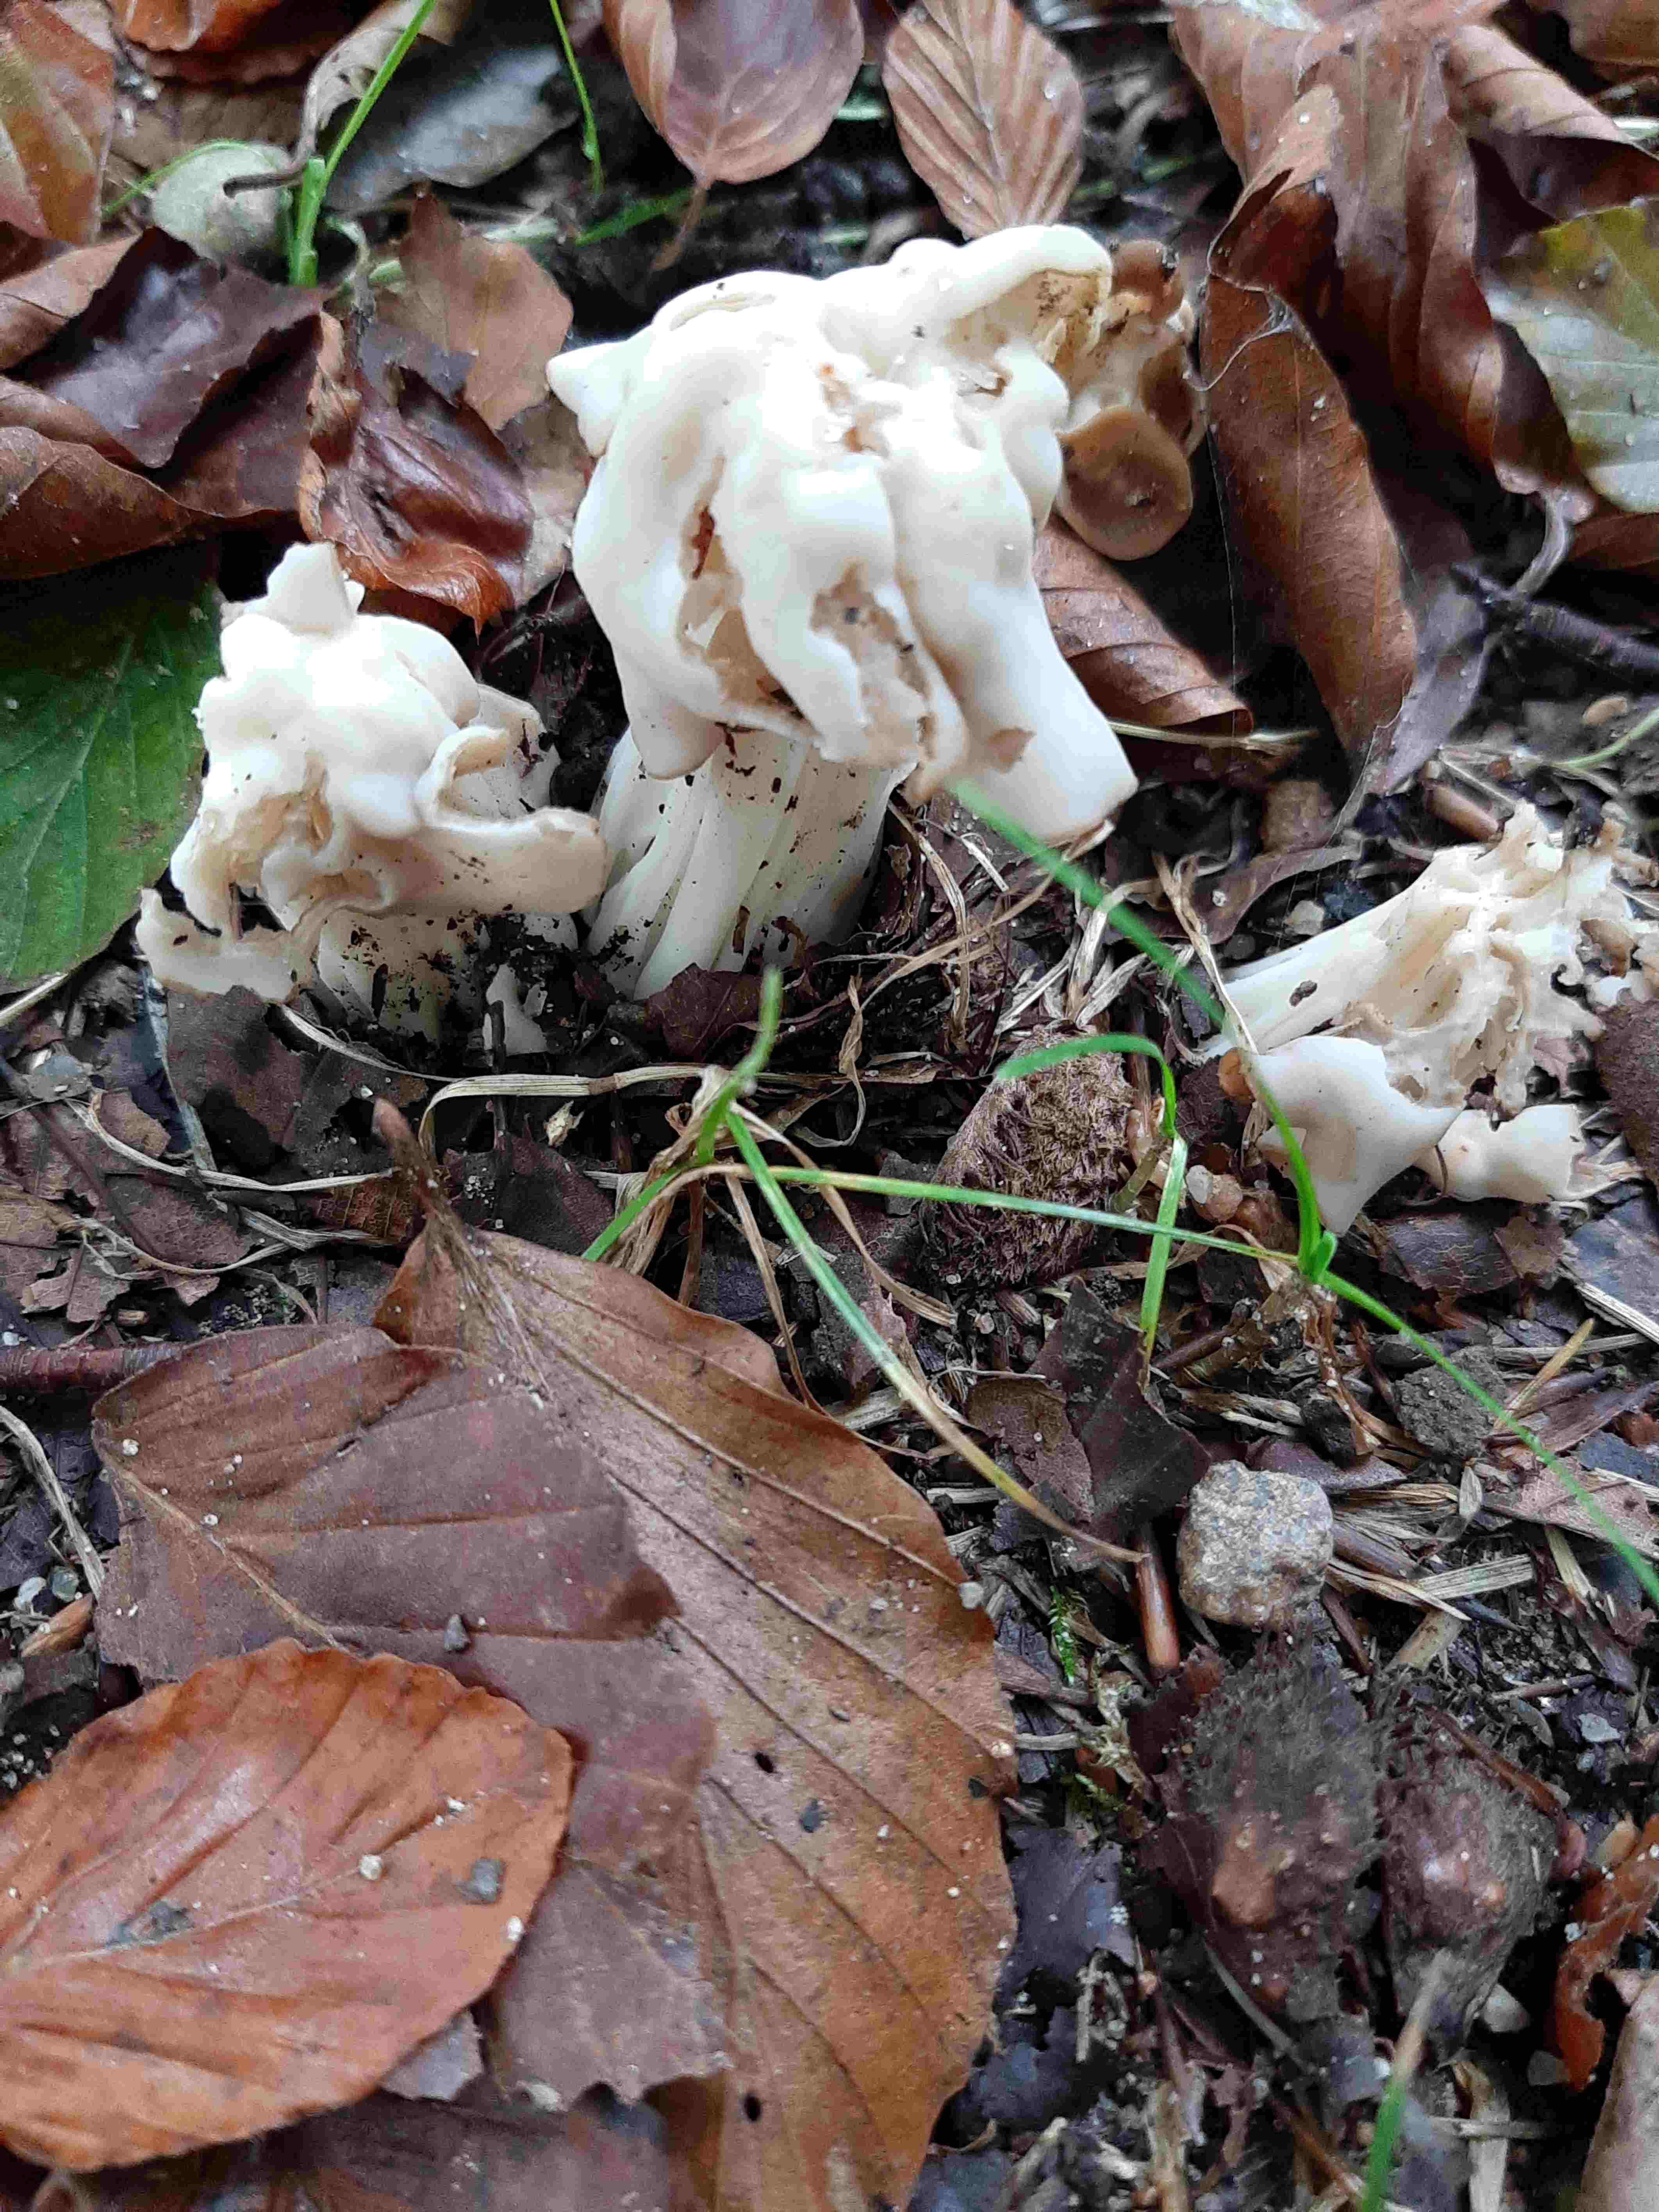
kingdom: Fungi
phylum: Ascomycota
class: Pezizomycetes
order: Pezizales
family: Helvellaceae
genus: Helvella
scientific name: Helvella crispa
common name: kruset foldhat
